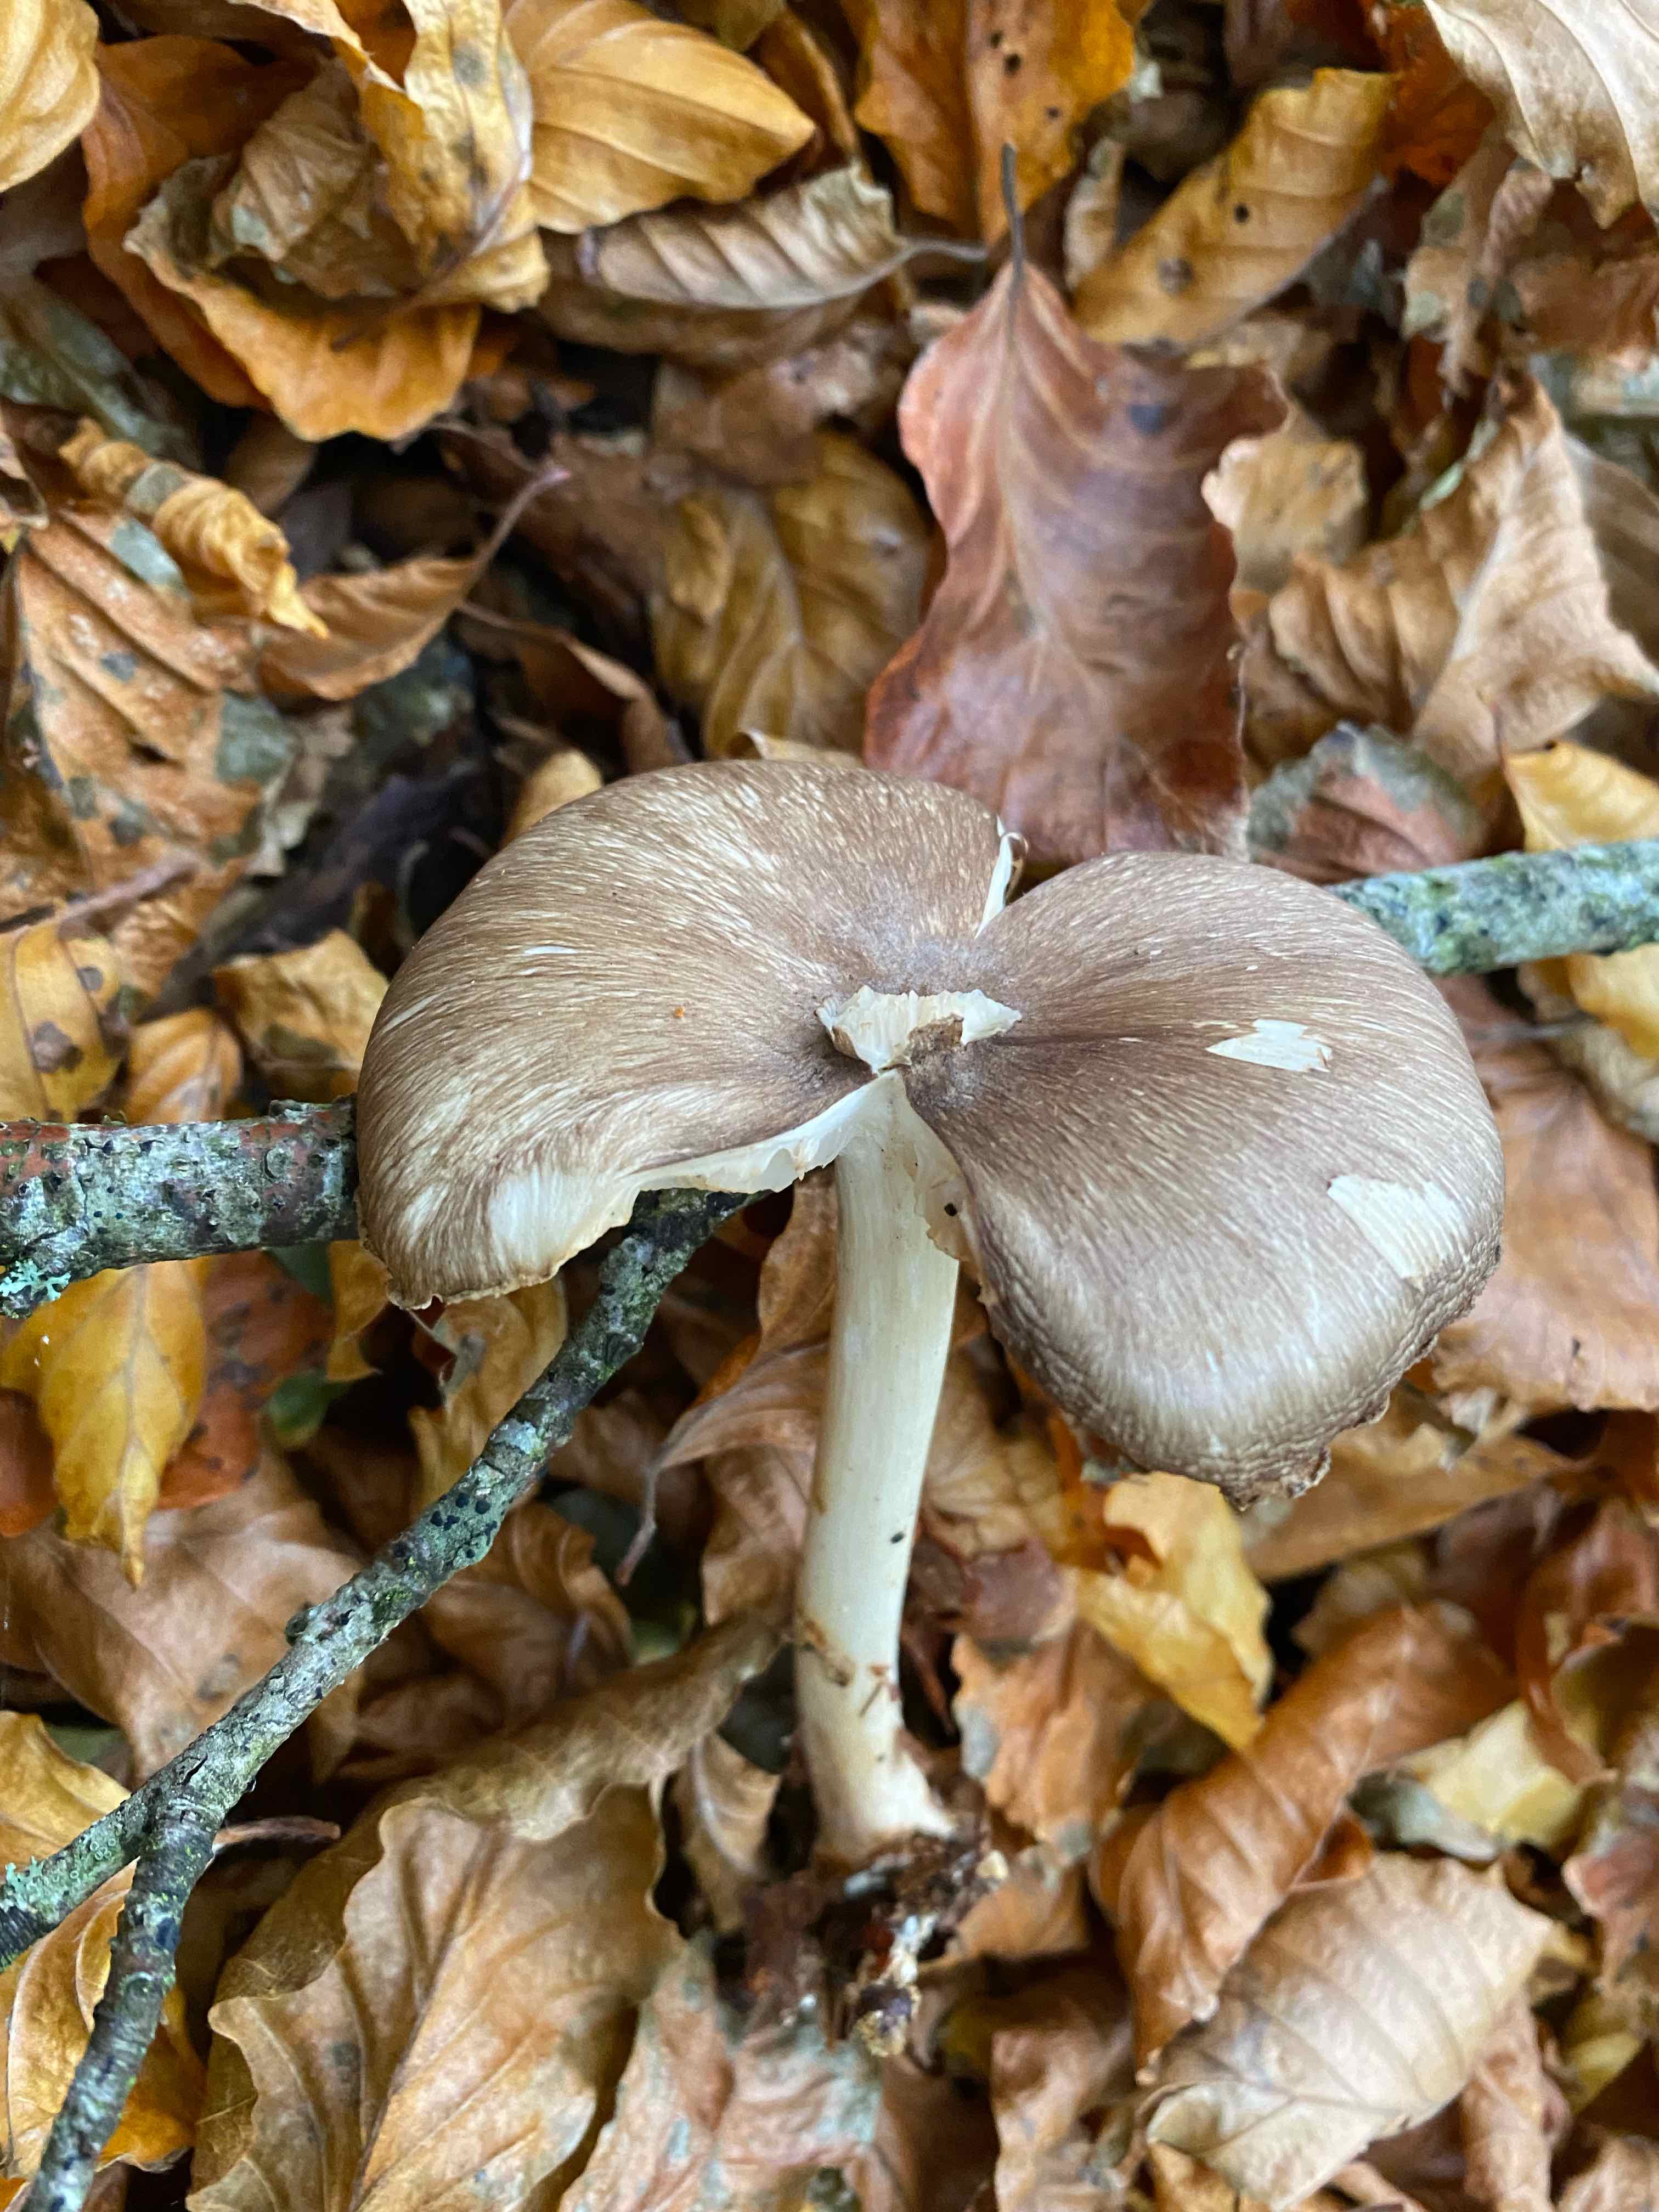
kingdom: Fungi
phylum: Basidiomycota
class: Agaricomycetes
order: Agaricales
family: Tricholomataceae
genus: Megacollybia
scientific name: Megacollybia platyphylla
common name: bredbladet væbnerhat
